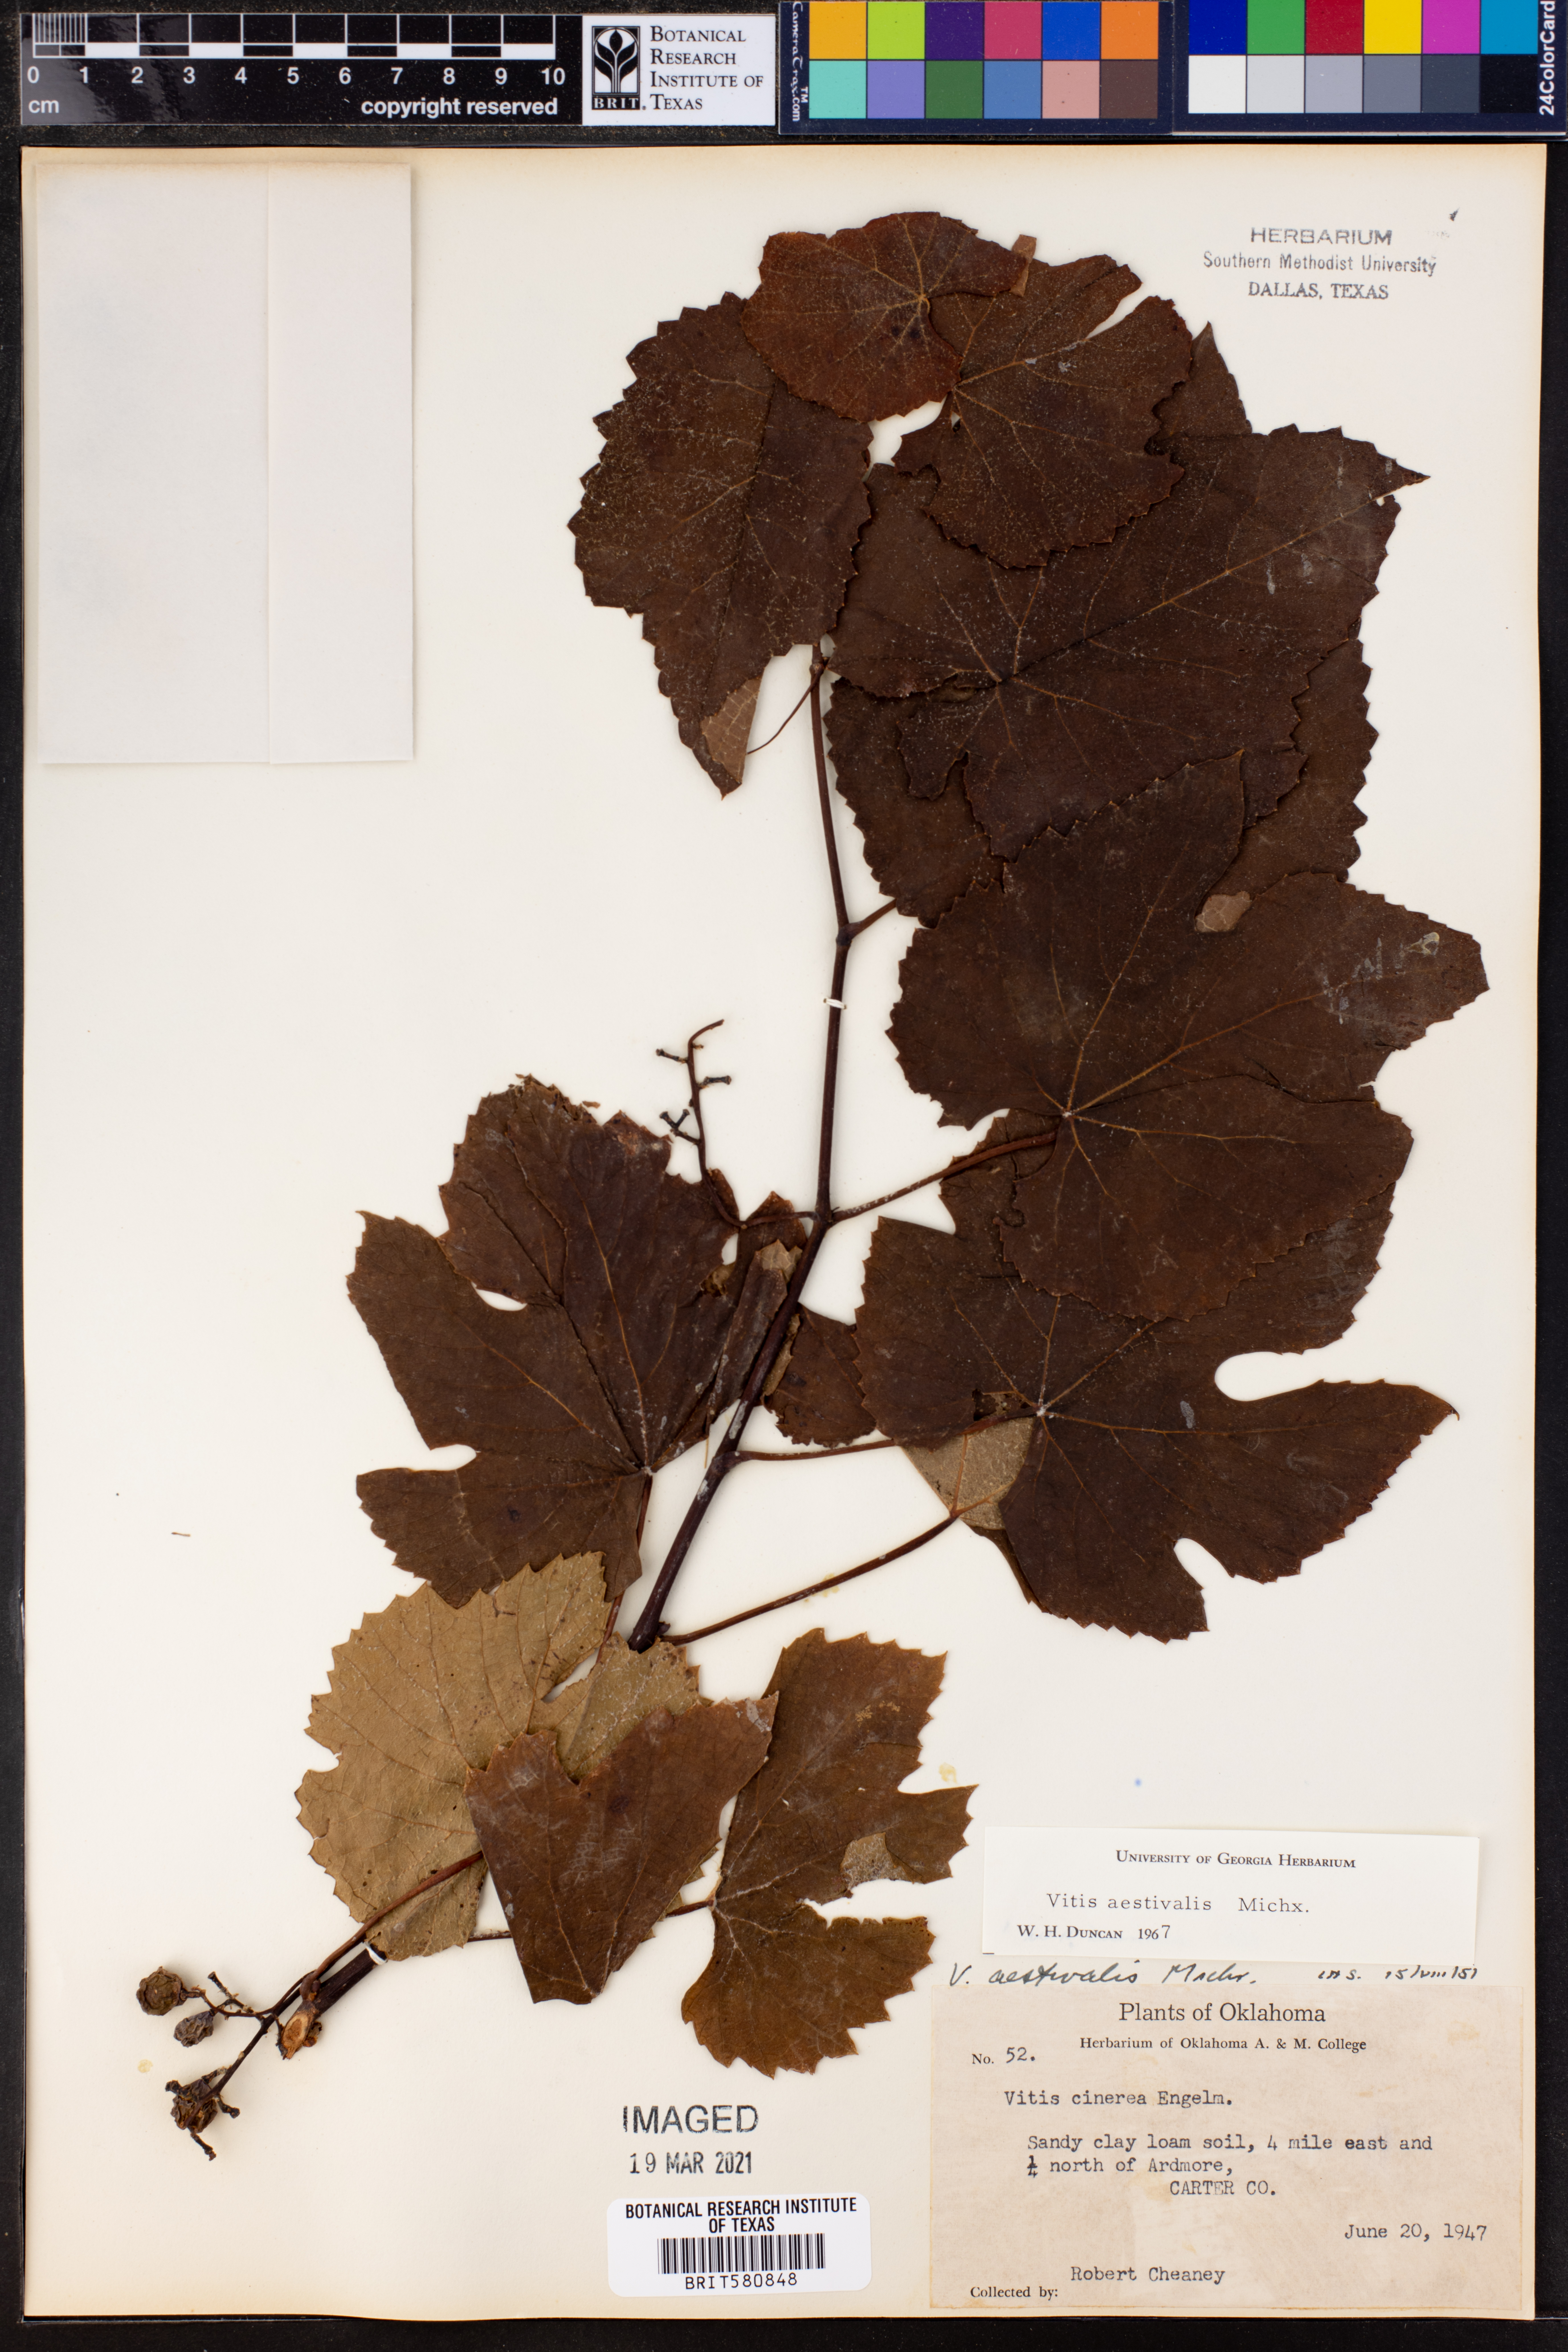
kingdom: Plantae
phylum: Tracheophyta
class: Magnoliopsida
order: Vitales
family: Vitaceae
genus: Vitis
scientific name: Vitis aestivalis
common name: Pigeon grape
